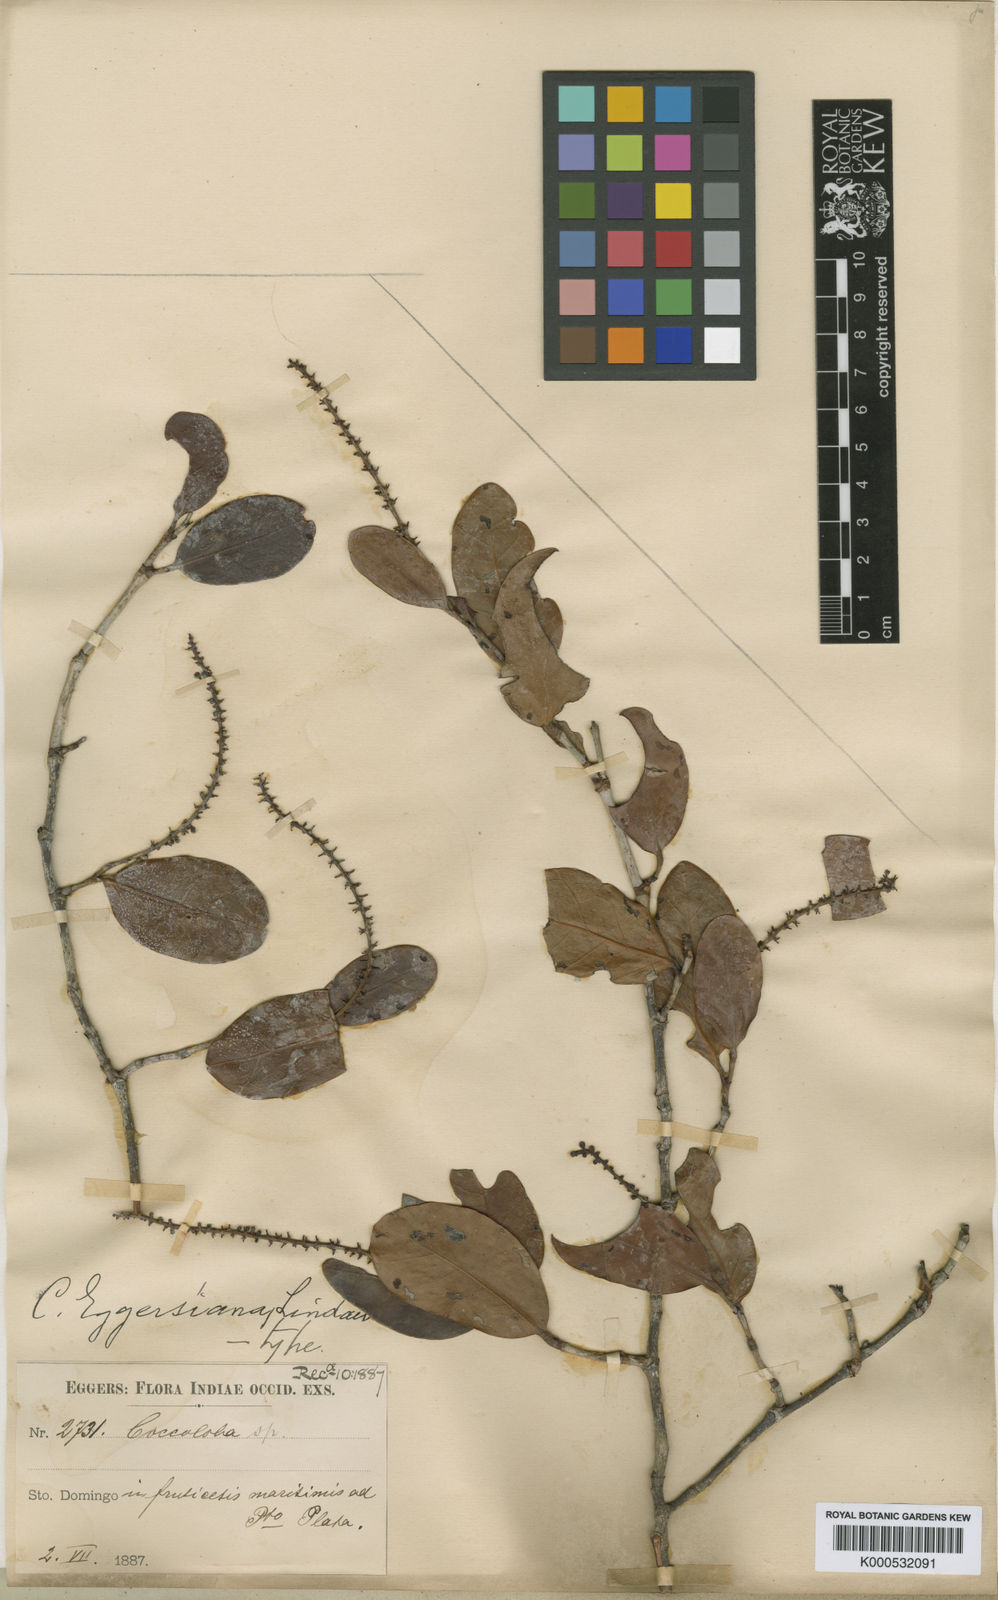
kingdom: Plantae
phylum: Tracheophyta
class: Magnoliopsida
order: Caryophyllales
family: Polygonaceae
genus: Coccoloba
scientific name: Coccoloba costata
